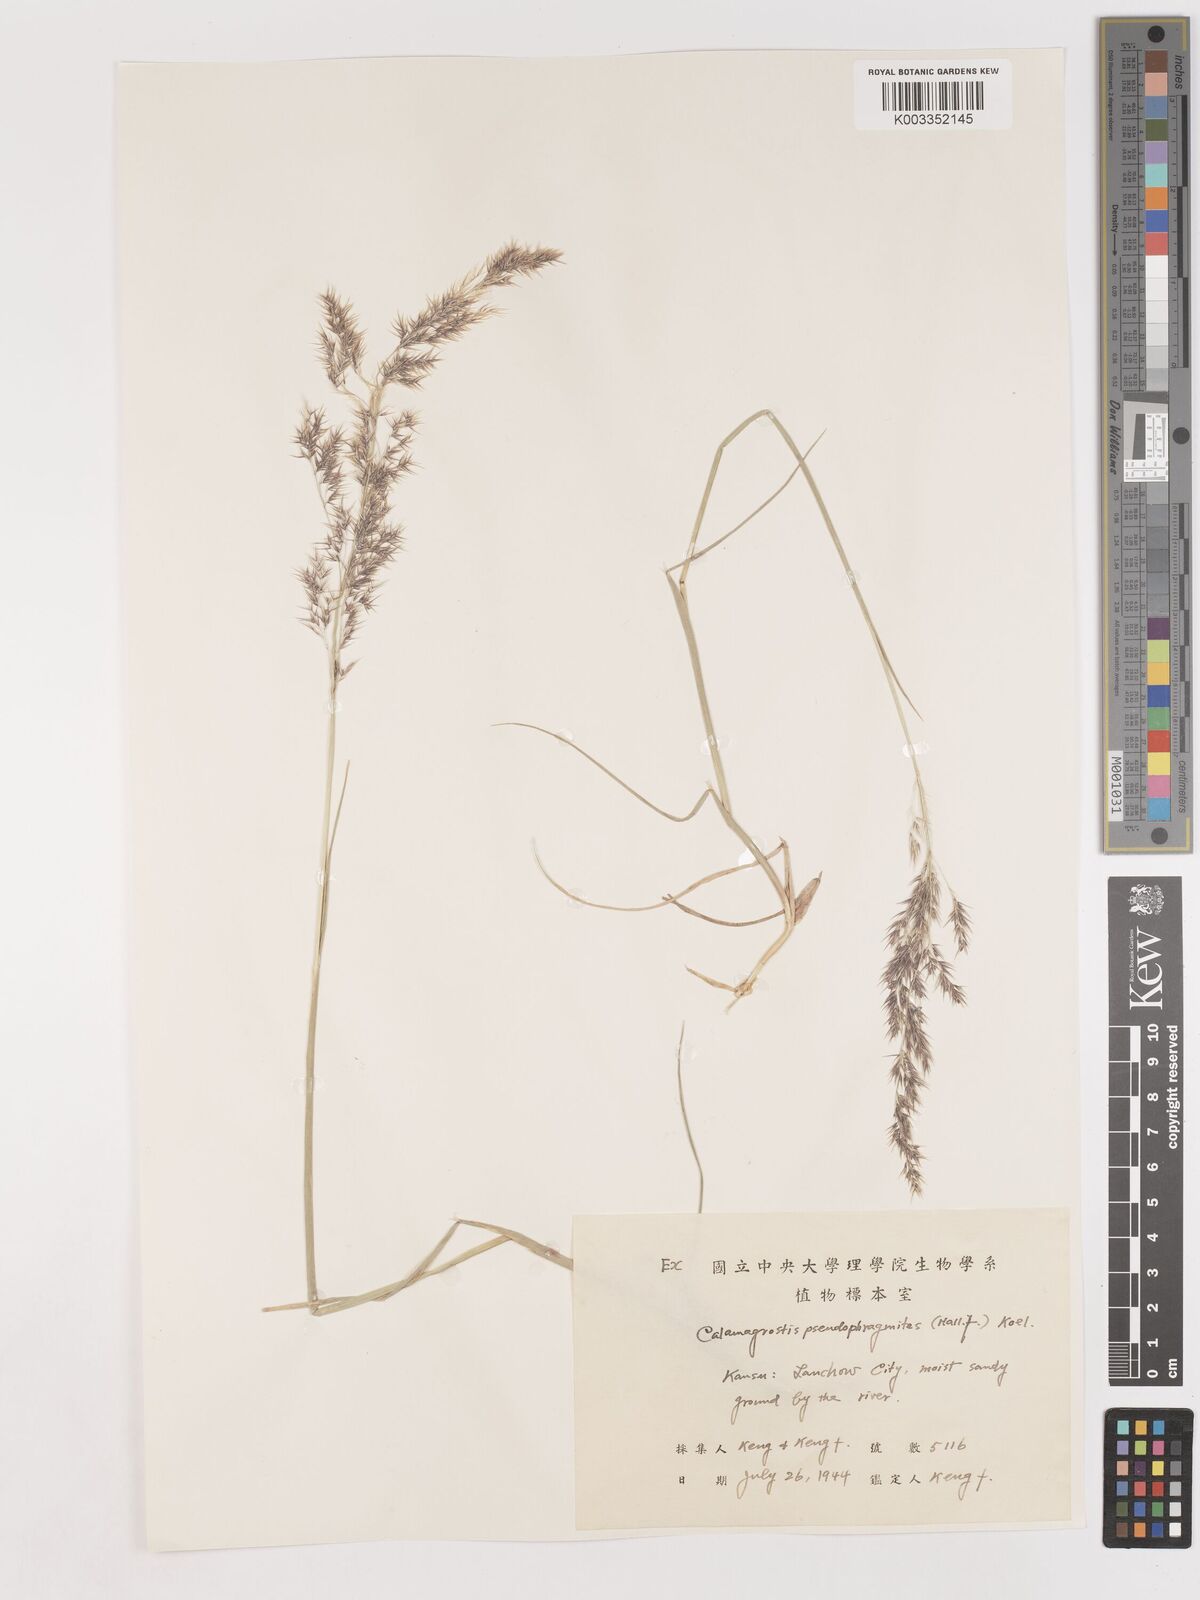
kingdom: Plantae
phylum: Tracheophyta
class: Liliopsida
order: Poales
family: Poaceae
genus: Calamagrostis
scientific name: Calamagrostis pseudophragmites
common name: Coastal small-reed
